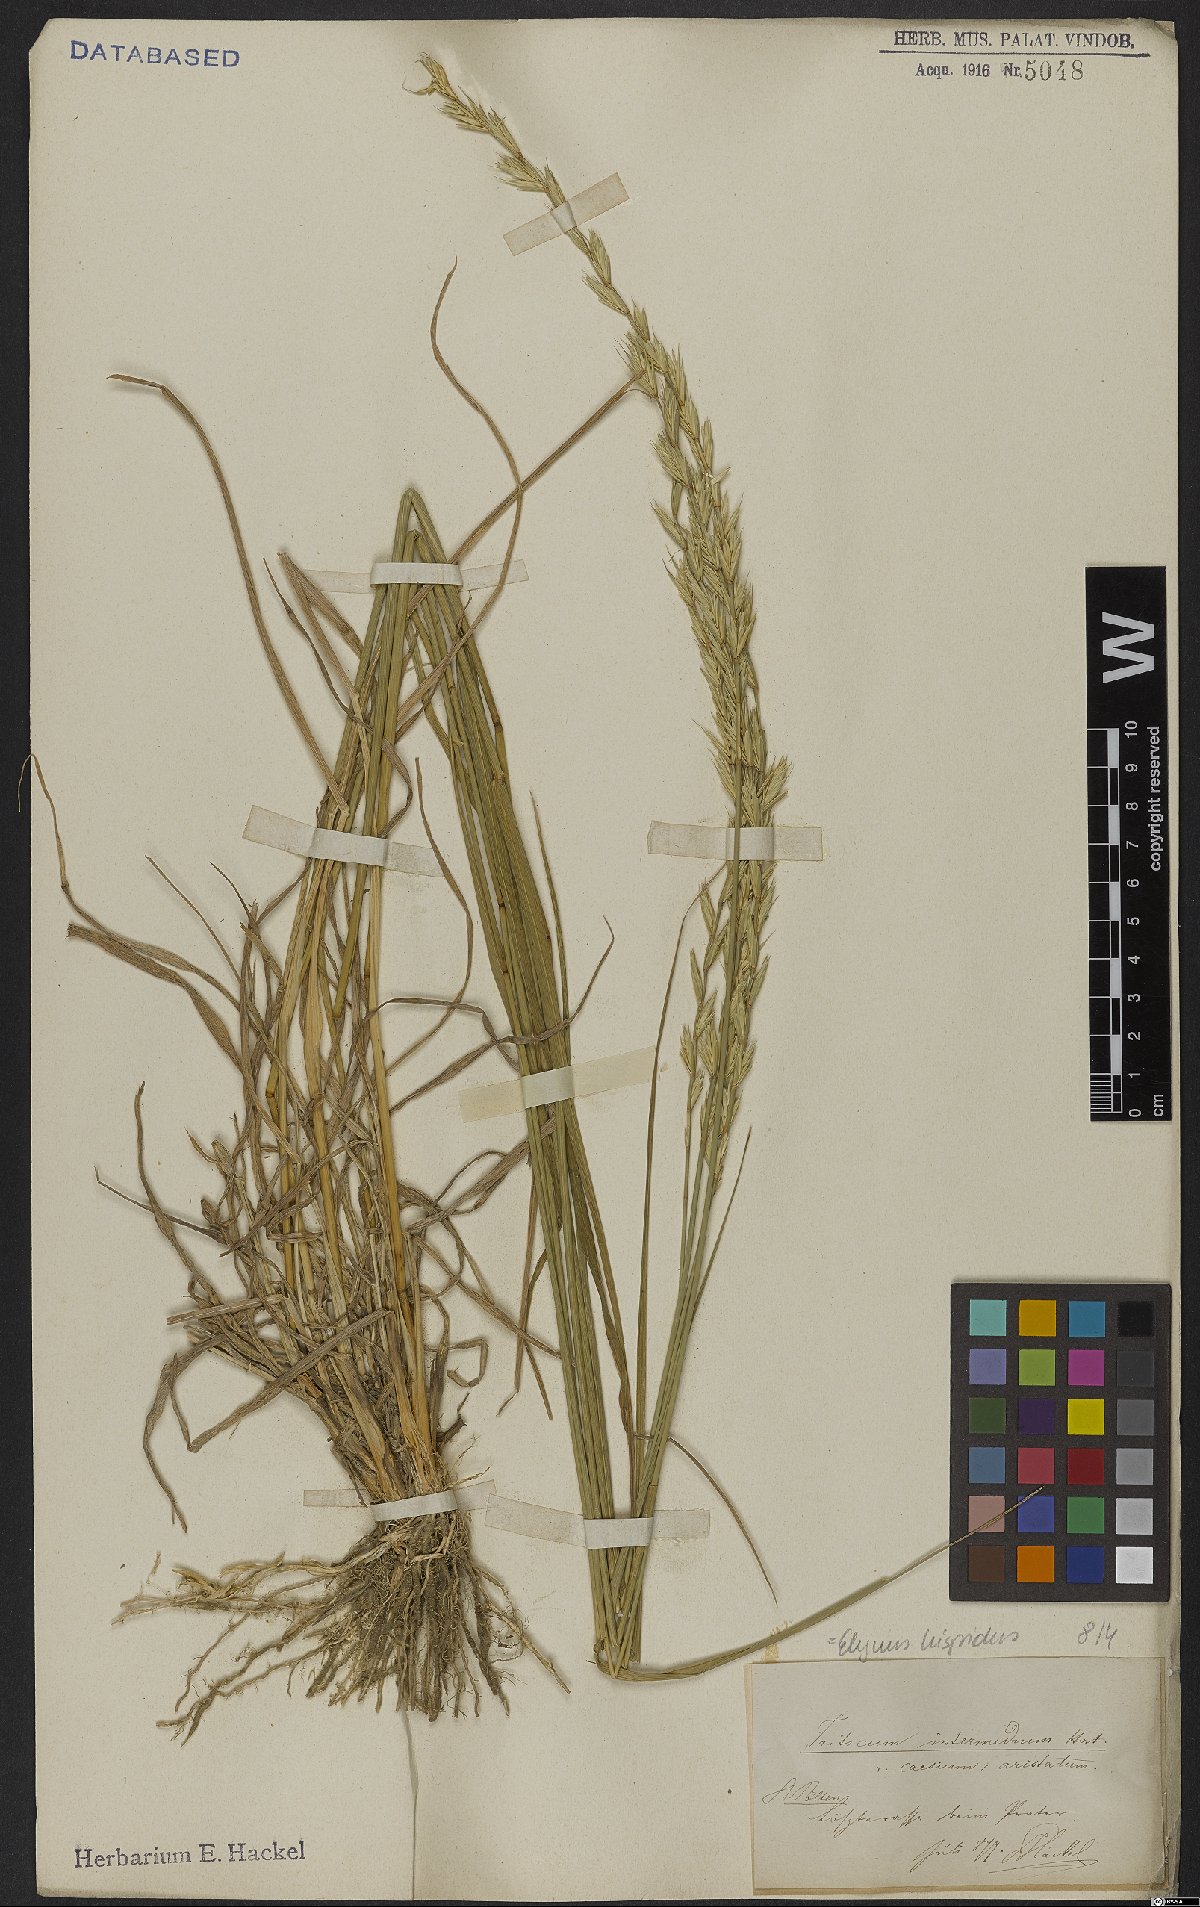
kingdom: Plantae
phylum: Tracheophyta
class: Liliopsida
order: Poales
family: Poaceae
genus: Thinopyrum
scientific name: Thinopyrum intermedium
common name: Intermediate wheatgrass
